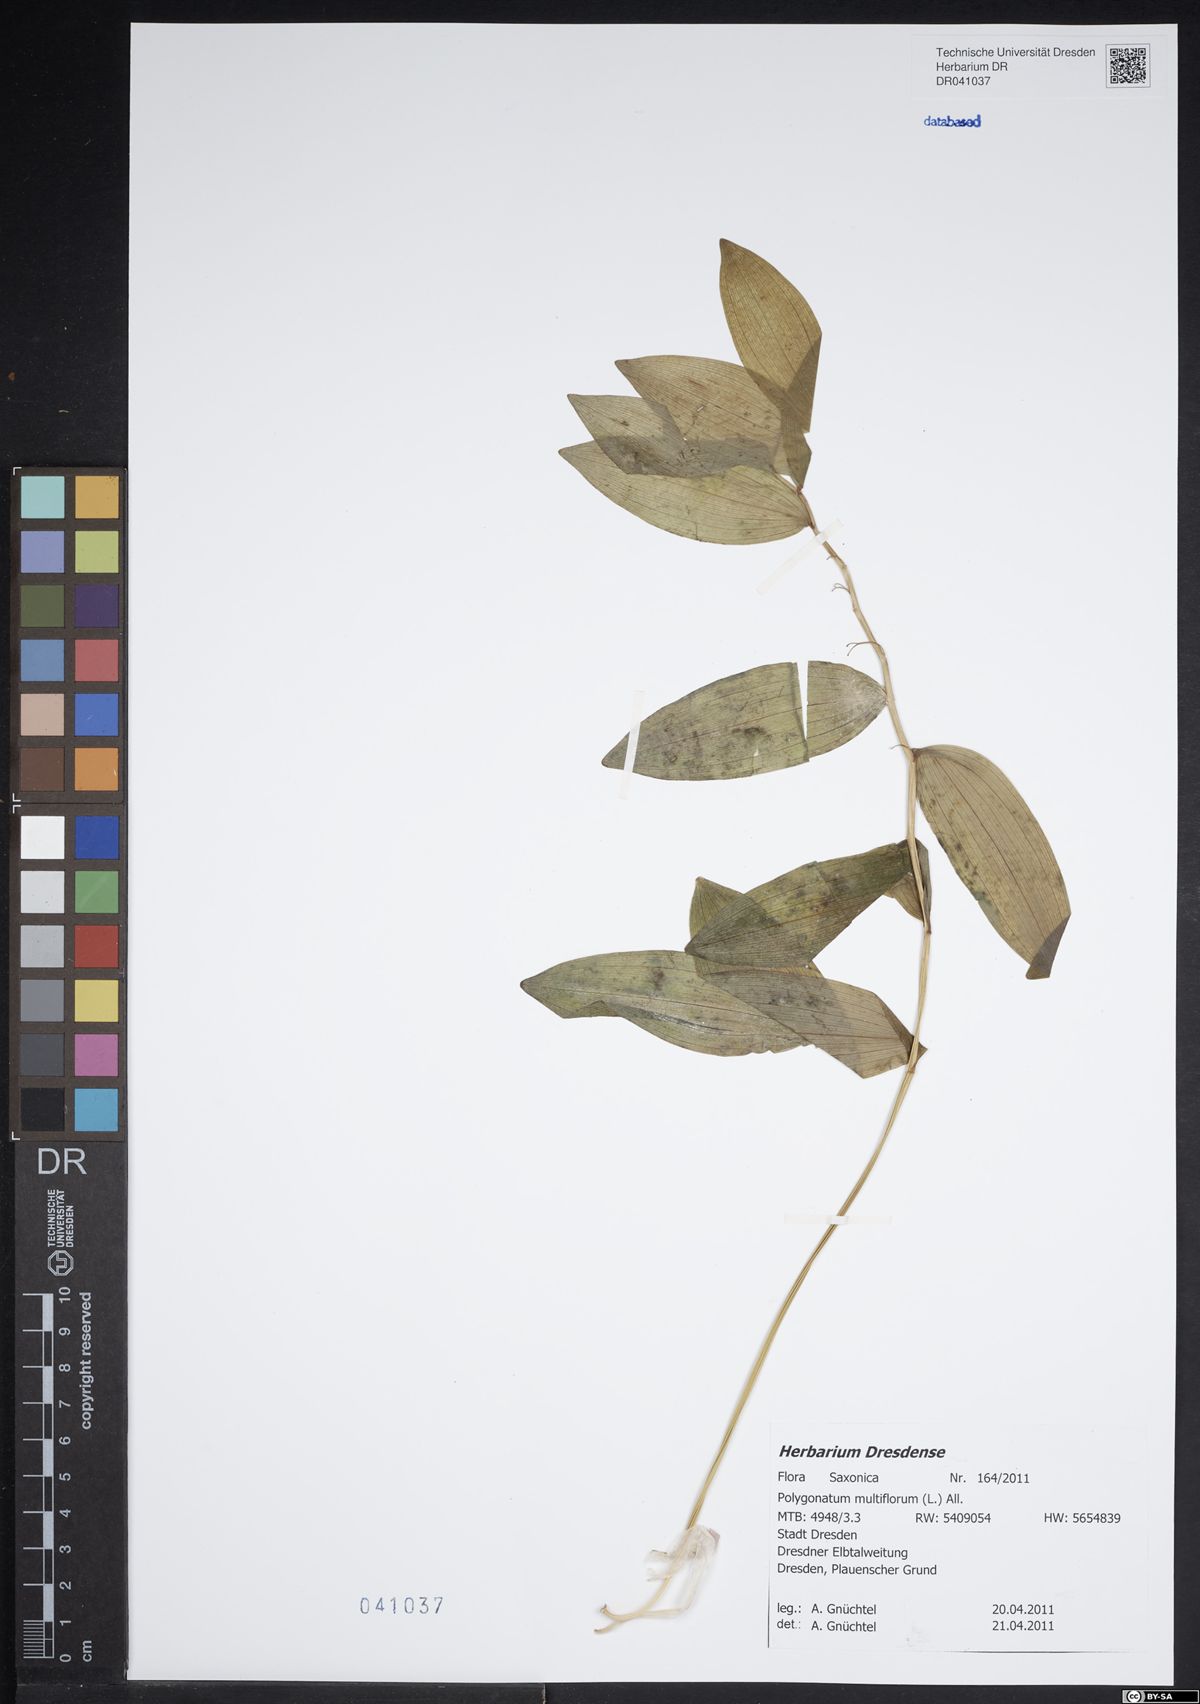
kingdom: Plantae
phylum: Tracheophyta
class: Liliopsida
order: Asparagales
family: Asparagaceae
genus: Polygonatum
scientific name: Polygonatum multiflorum
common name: Solomon's-seal
